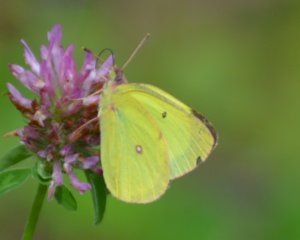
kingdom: Animalia
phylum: Arthropoda
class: Insecta
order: Lepidoptera
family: Pieridae
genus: Colias
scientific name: Colias interior
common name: Pink-edged Sulphur
